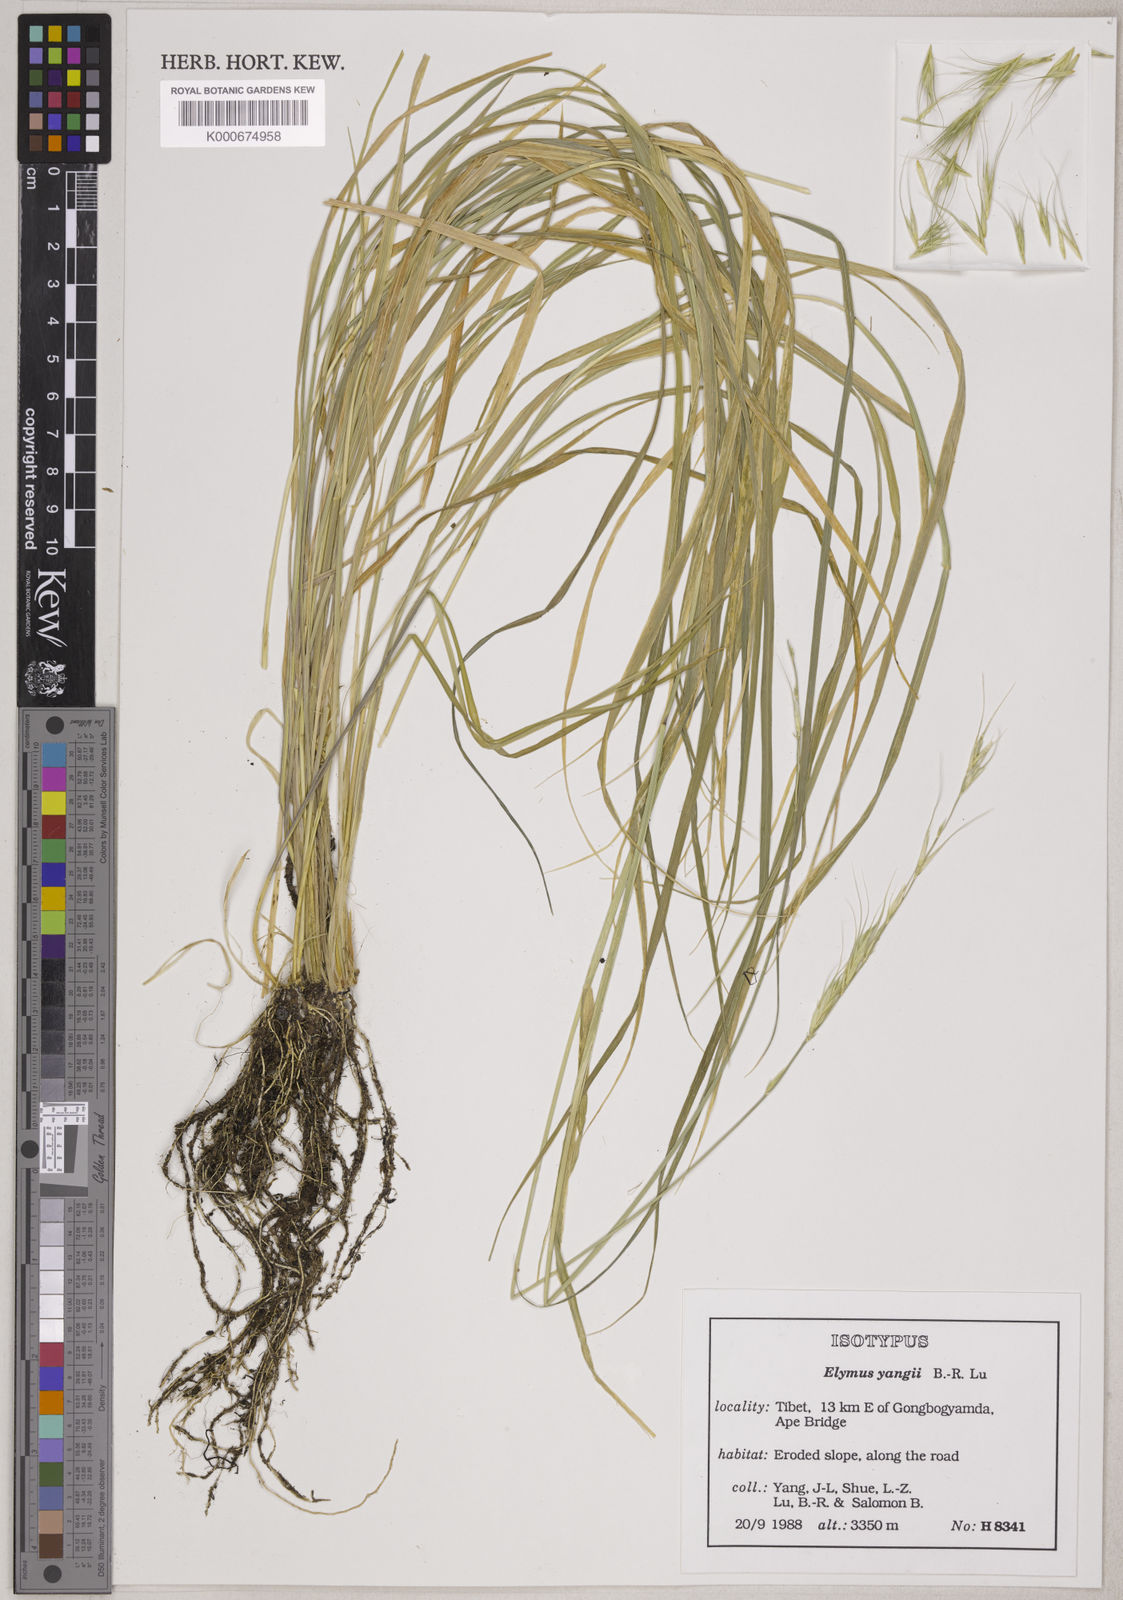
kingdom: Plantae
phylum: Tracheophyta
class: Liliopsida
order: Poales
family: Poaceae
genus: Elymus
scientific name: Elymus yangiae
